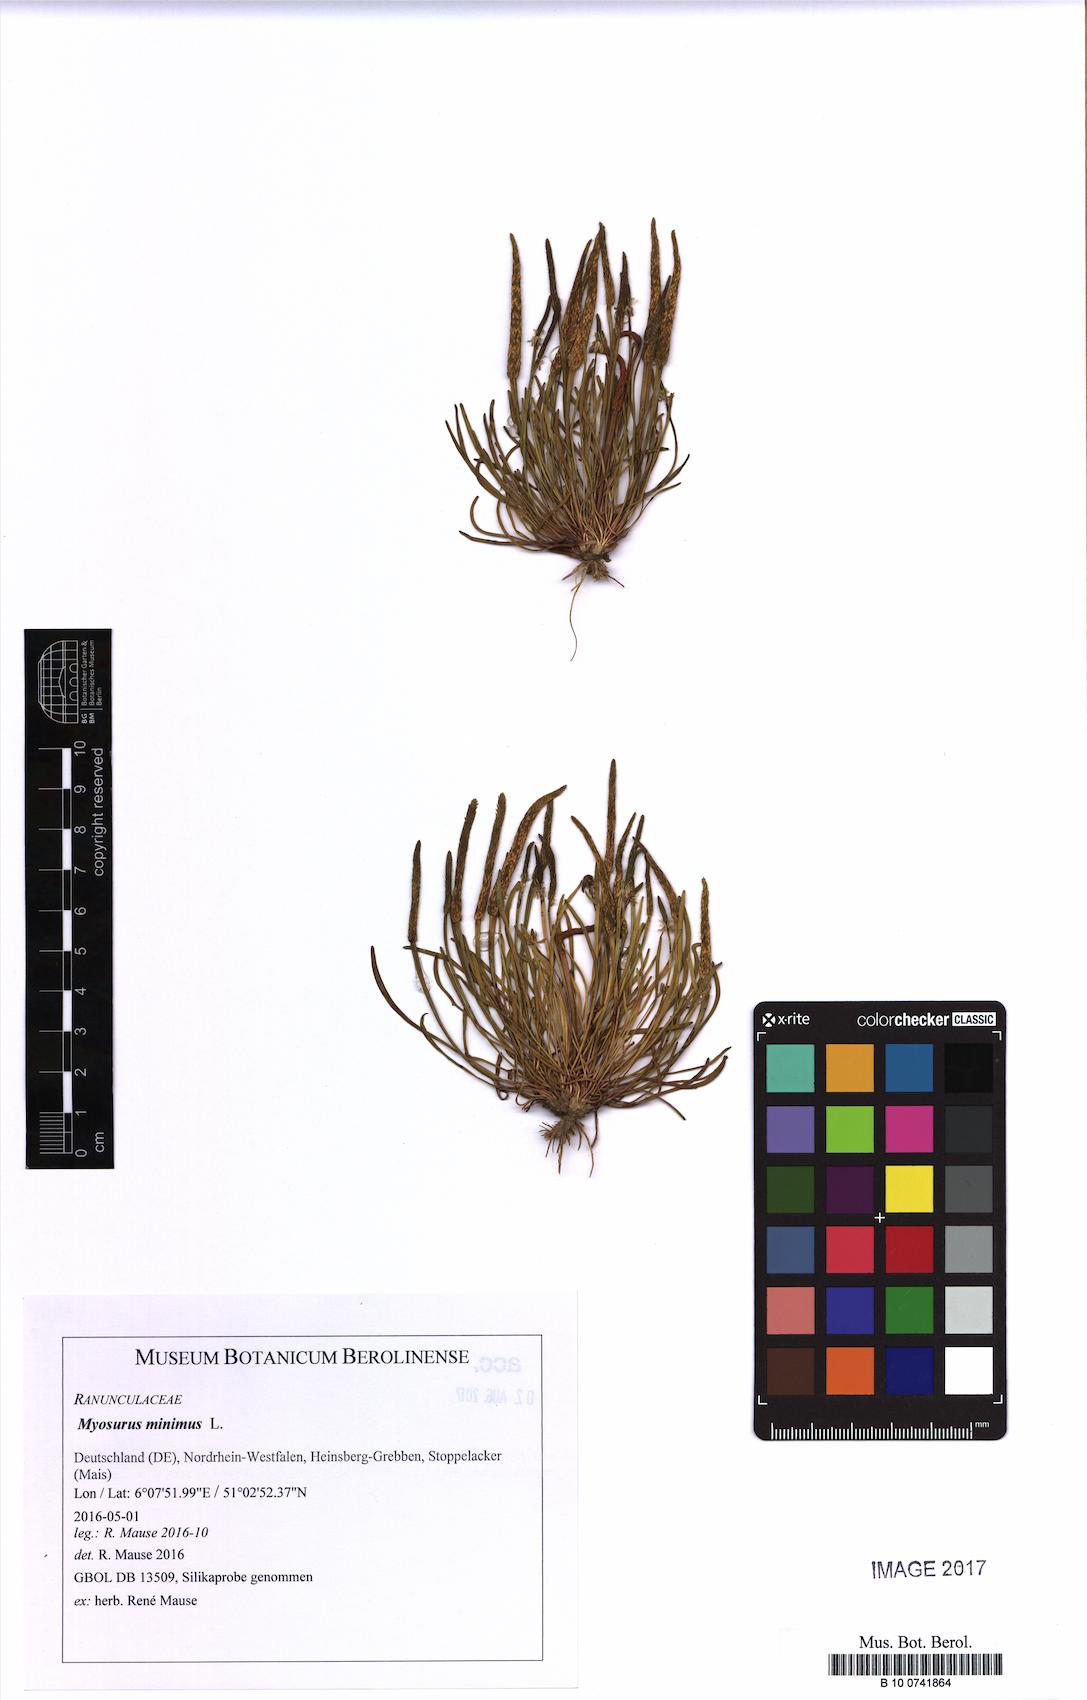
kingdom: Plantae
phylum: Tracheophyta
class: Magnoliopsida
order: Ranunculales
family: Ranunculaceae
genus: Myosurus
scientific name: Myosurus minimus
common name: Mousetail
